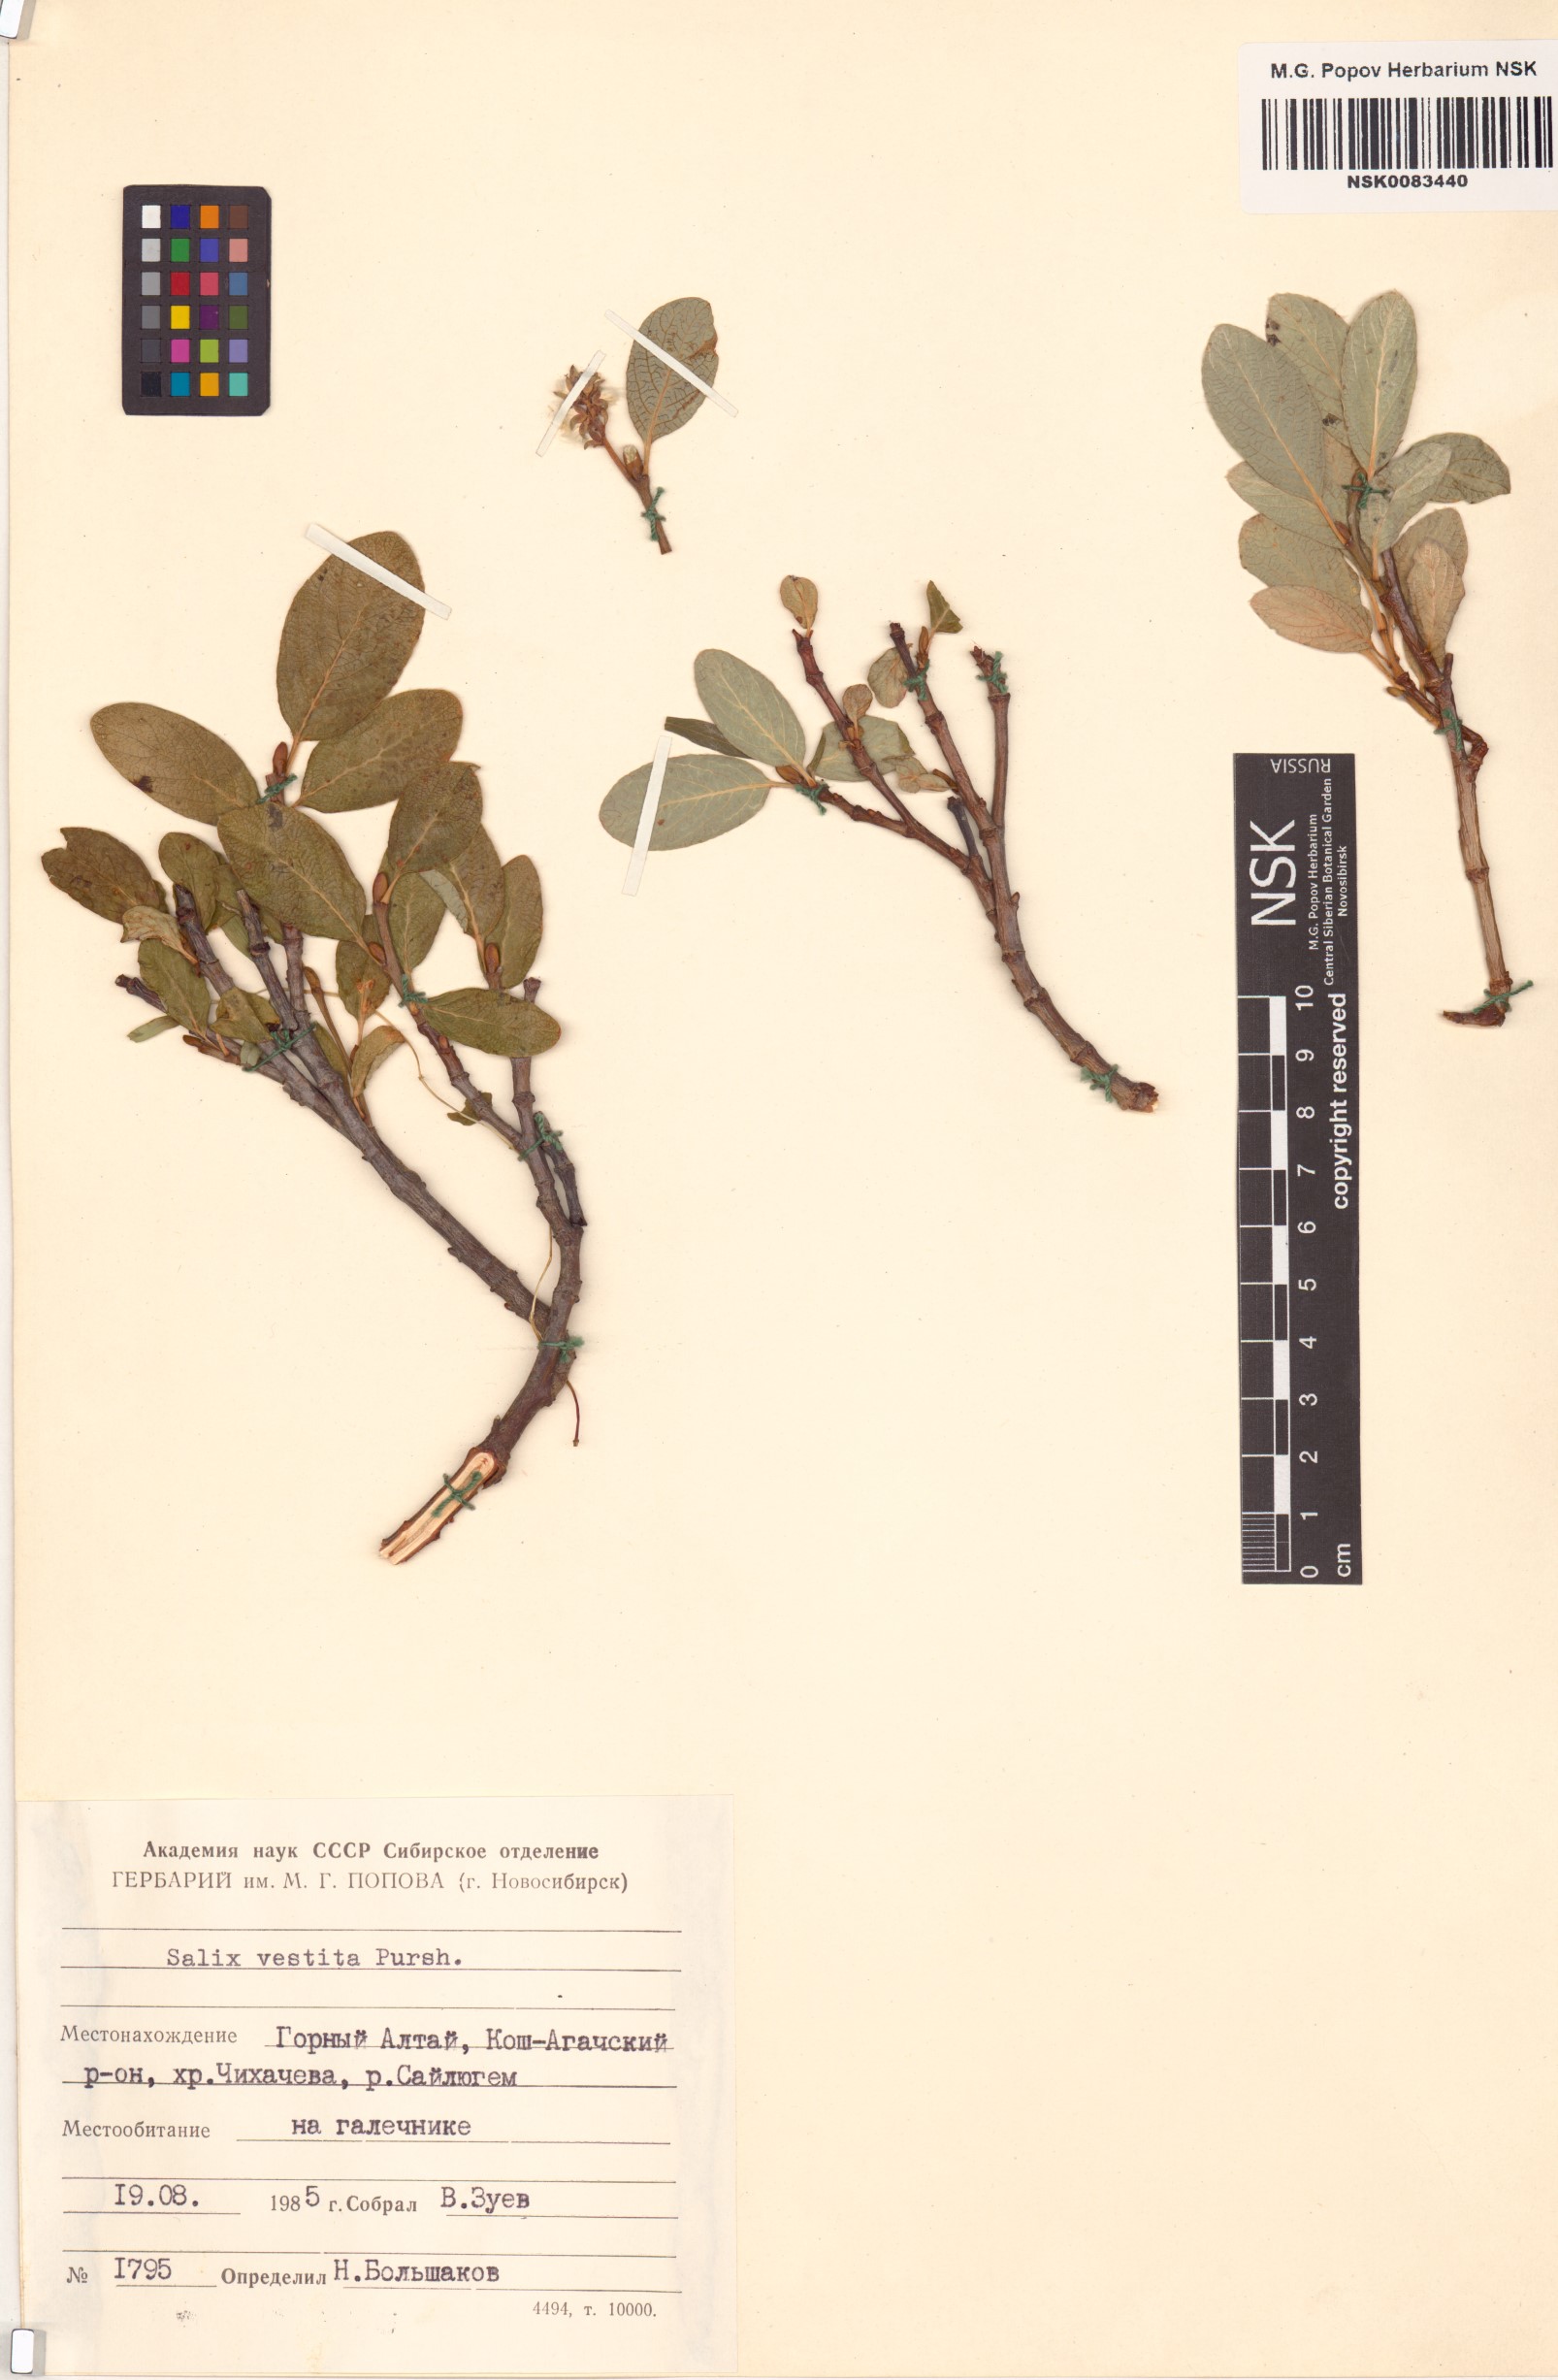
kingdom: Plantae
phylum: Tracheophyta
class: Magnoliopsida
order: Malpighiales
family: Salicaceae
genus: Salix
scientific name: Salix vestita
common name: Hairy willow
